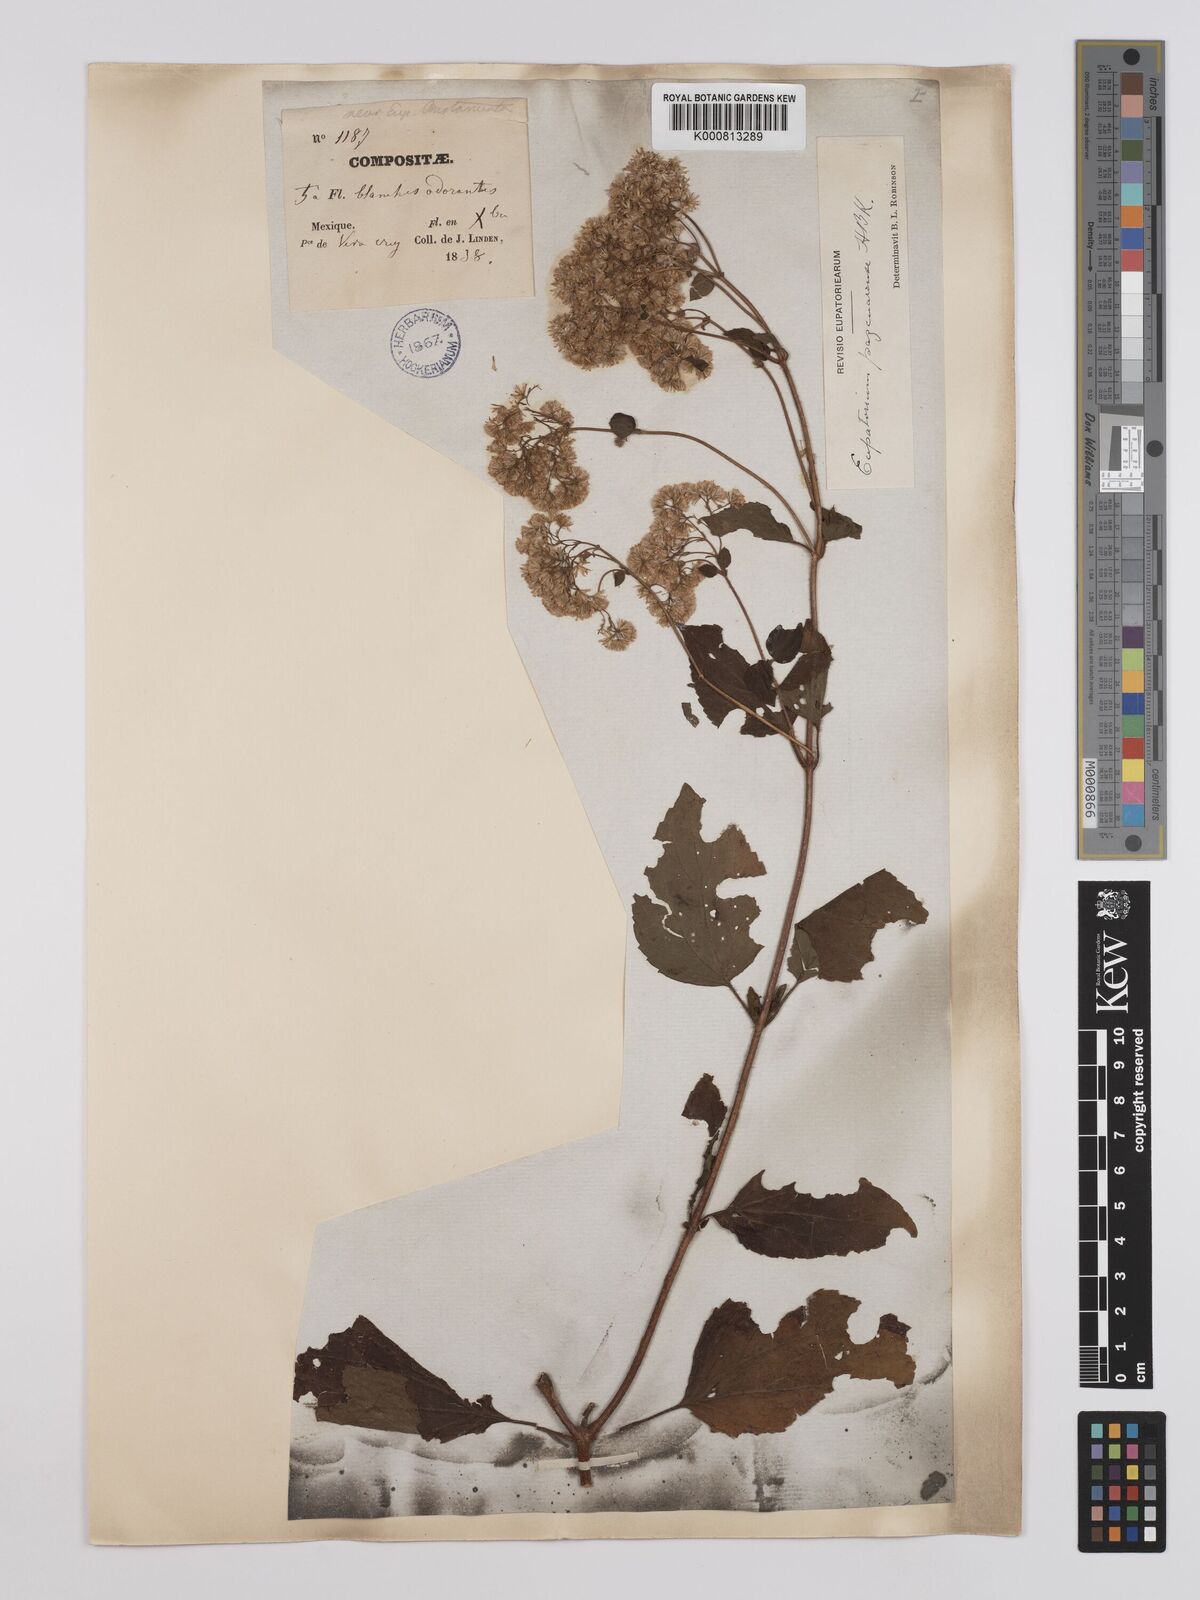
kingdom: Plantae
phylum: Tracheophyta
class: Magnoliopsida
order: Asterales
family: Asteraceae
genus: Ageratina
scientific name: Ageratina pazcuarensis
